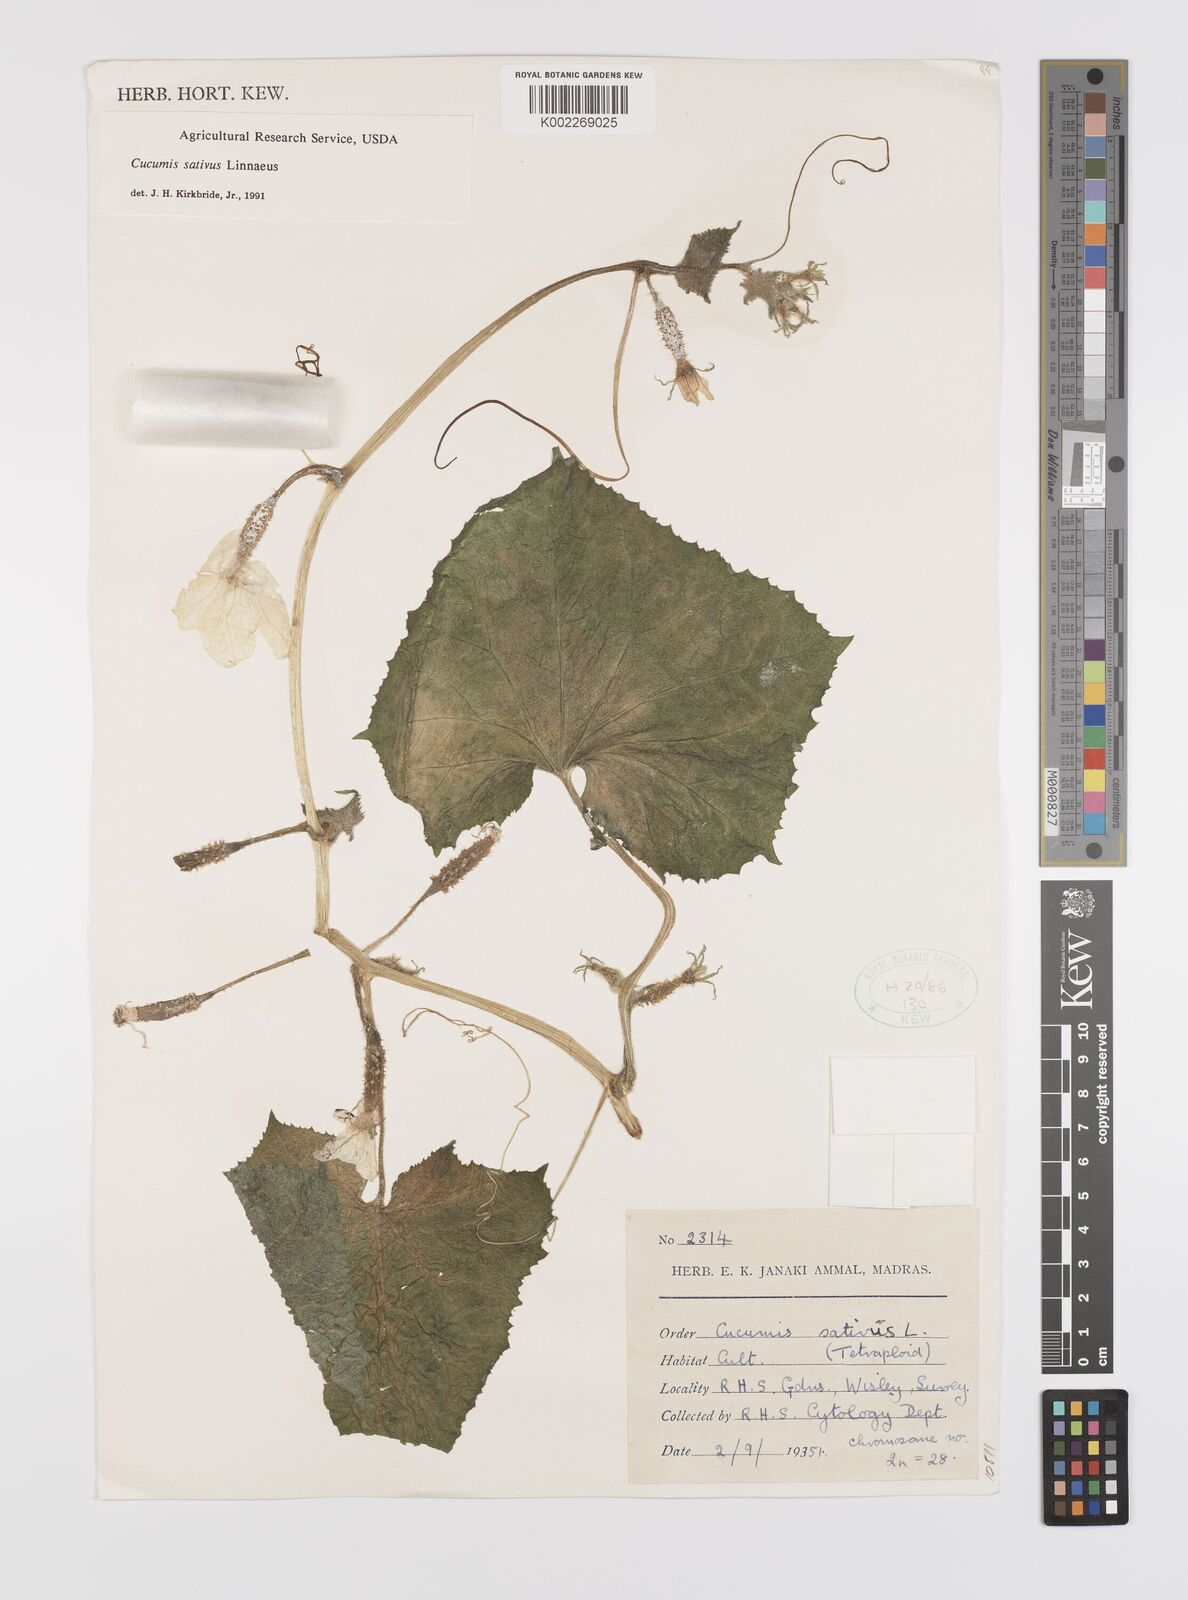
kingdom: Plantae
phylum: Tracheophyta
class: Magnoliopsida
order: Cucurbitales
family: Cucurbitaceae
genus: Cucumis
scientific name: Cucumis sativus
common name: Cucumber
